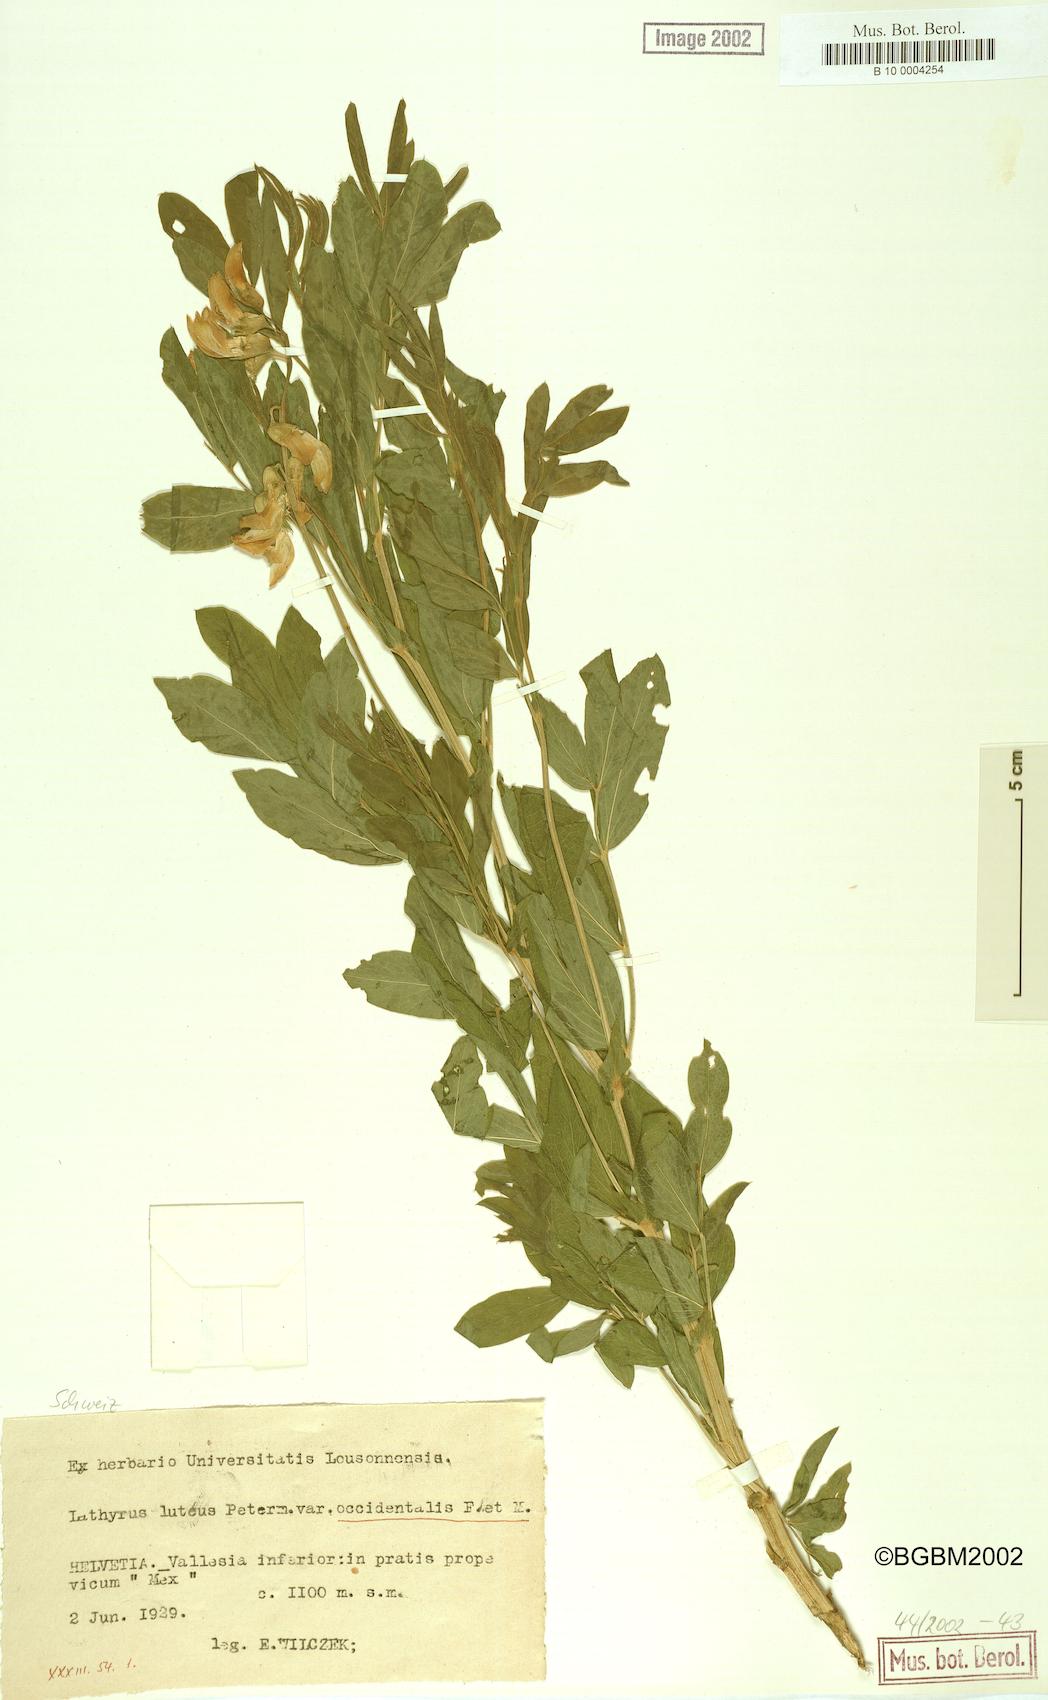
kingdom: Plantae
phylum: Tracheophyta
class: Magnoliopsida
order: Fabales
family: Fabaceae
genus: Lathyrus
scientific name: Lathyrus gmelinii
